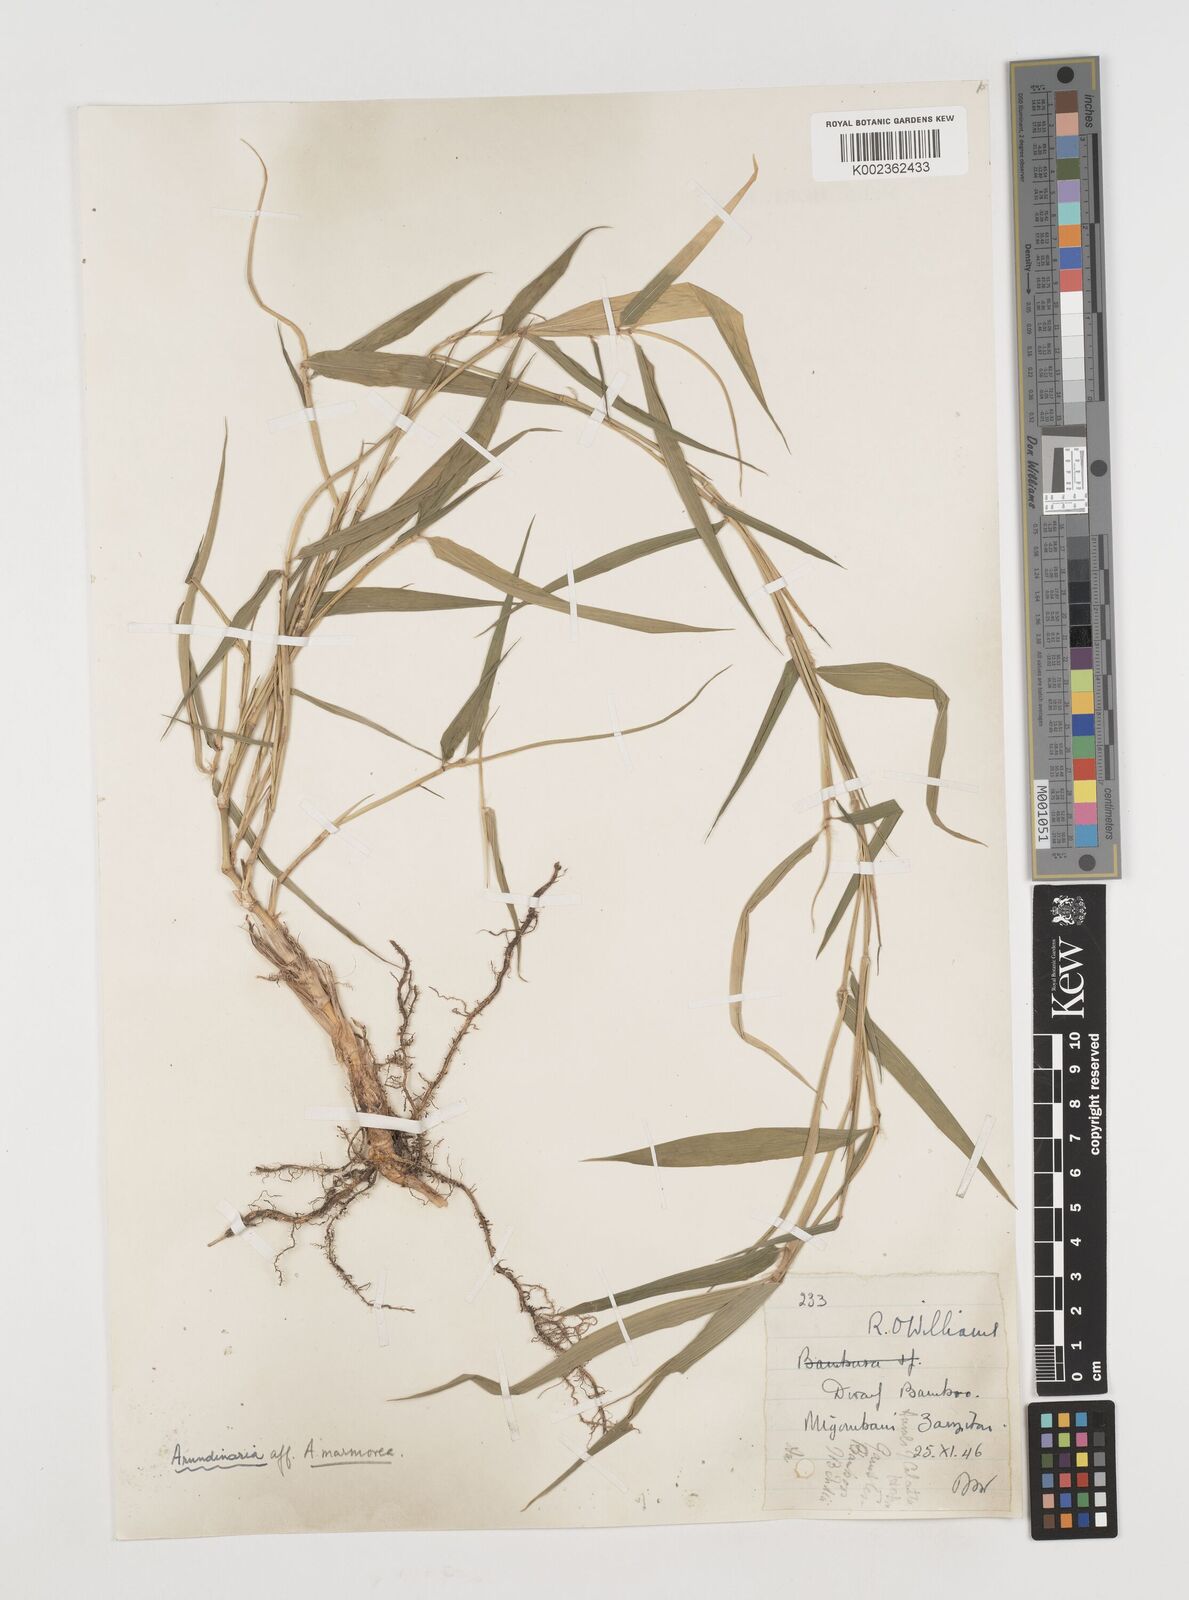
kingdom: Plantae
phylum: Tracheophyta
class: Liliopsida
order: Poales
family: Poaceae
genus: Oldeania
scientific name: Oldeania
